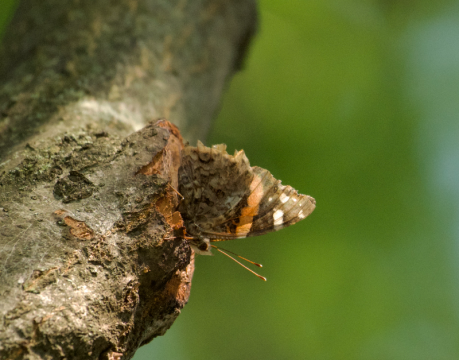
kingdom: Animalia
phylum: Arthropoda
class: Insecta
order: Lepidoptera
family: Nymphalidae
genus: Vanessa
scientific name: Vanessa atalanta
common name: Red Admiral
